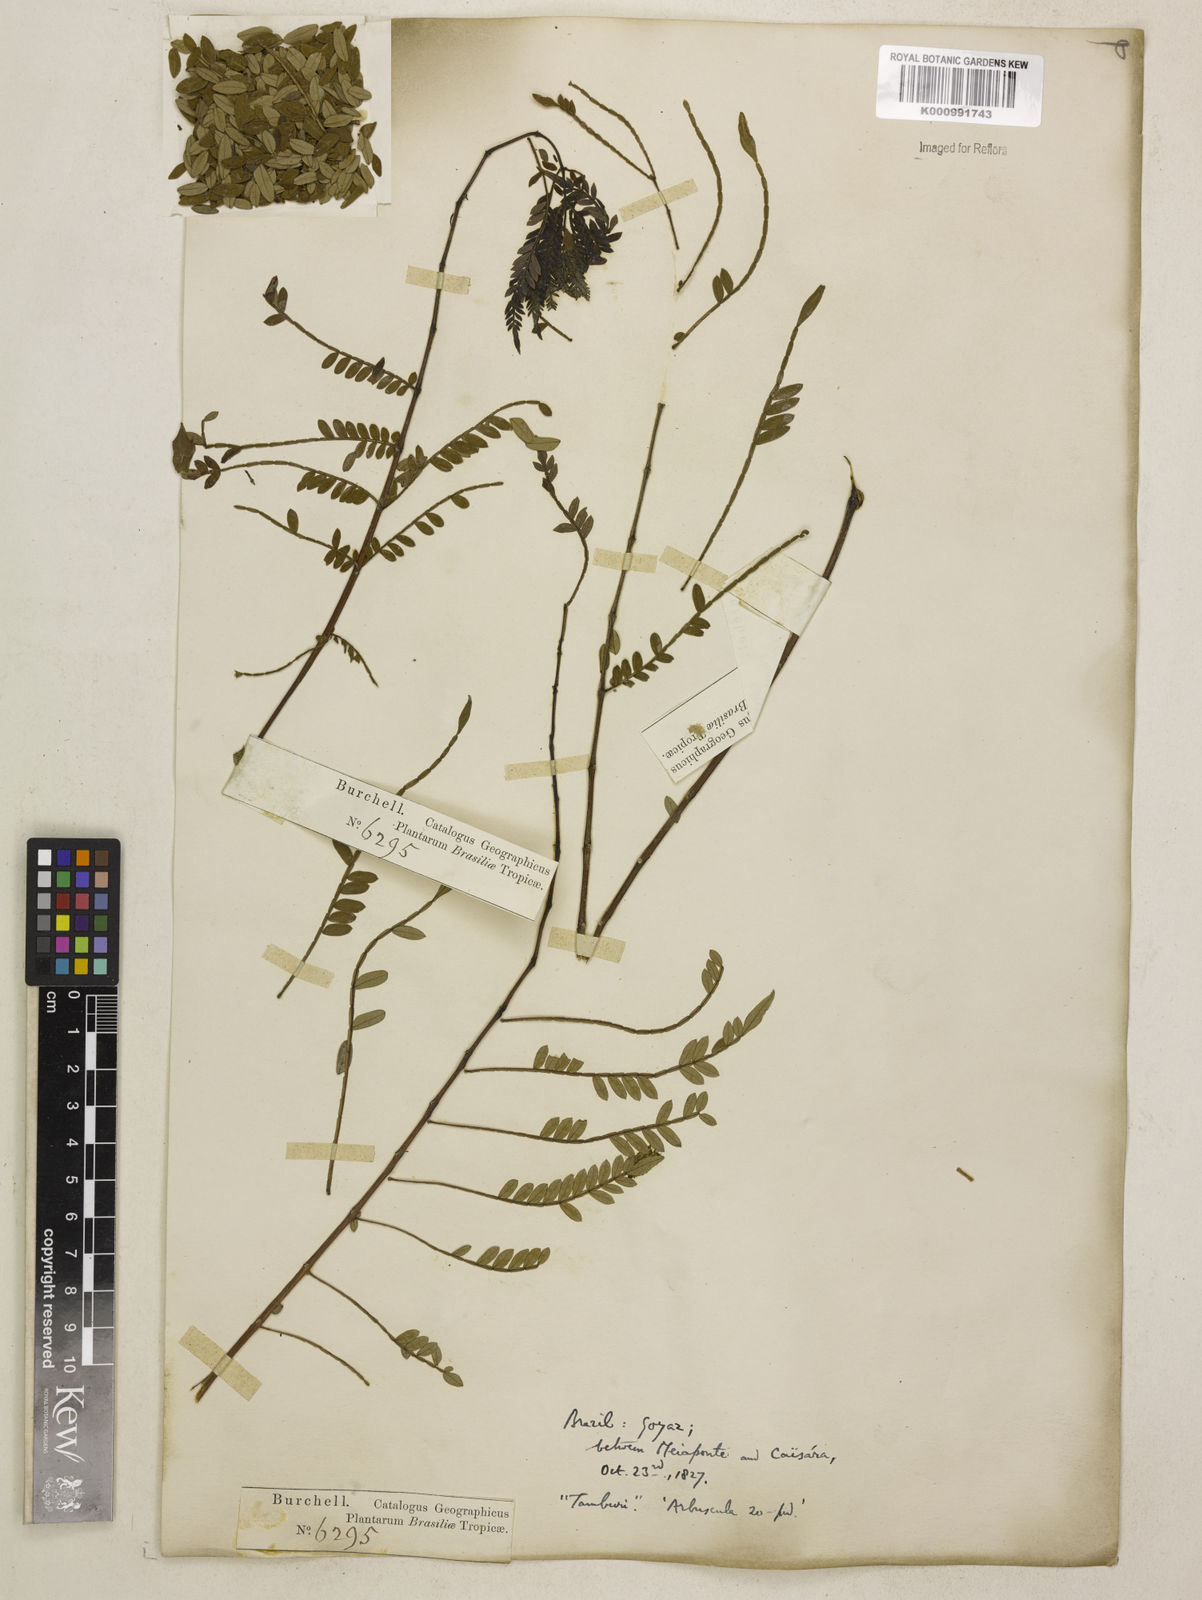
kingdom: Plantae
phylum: Tracheophyta
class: Magnoliopsida
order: Lamiales
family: Bignoniaceae
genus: Jacaranda
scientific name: Jacaranda brasiliana
